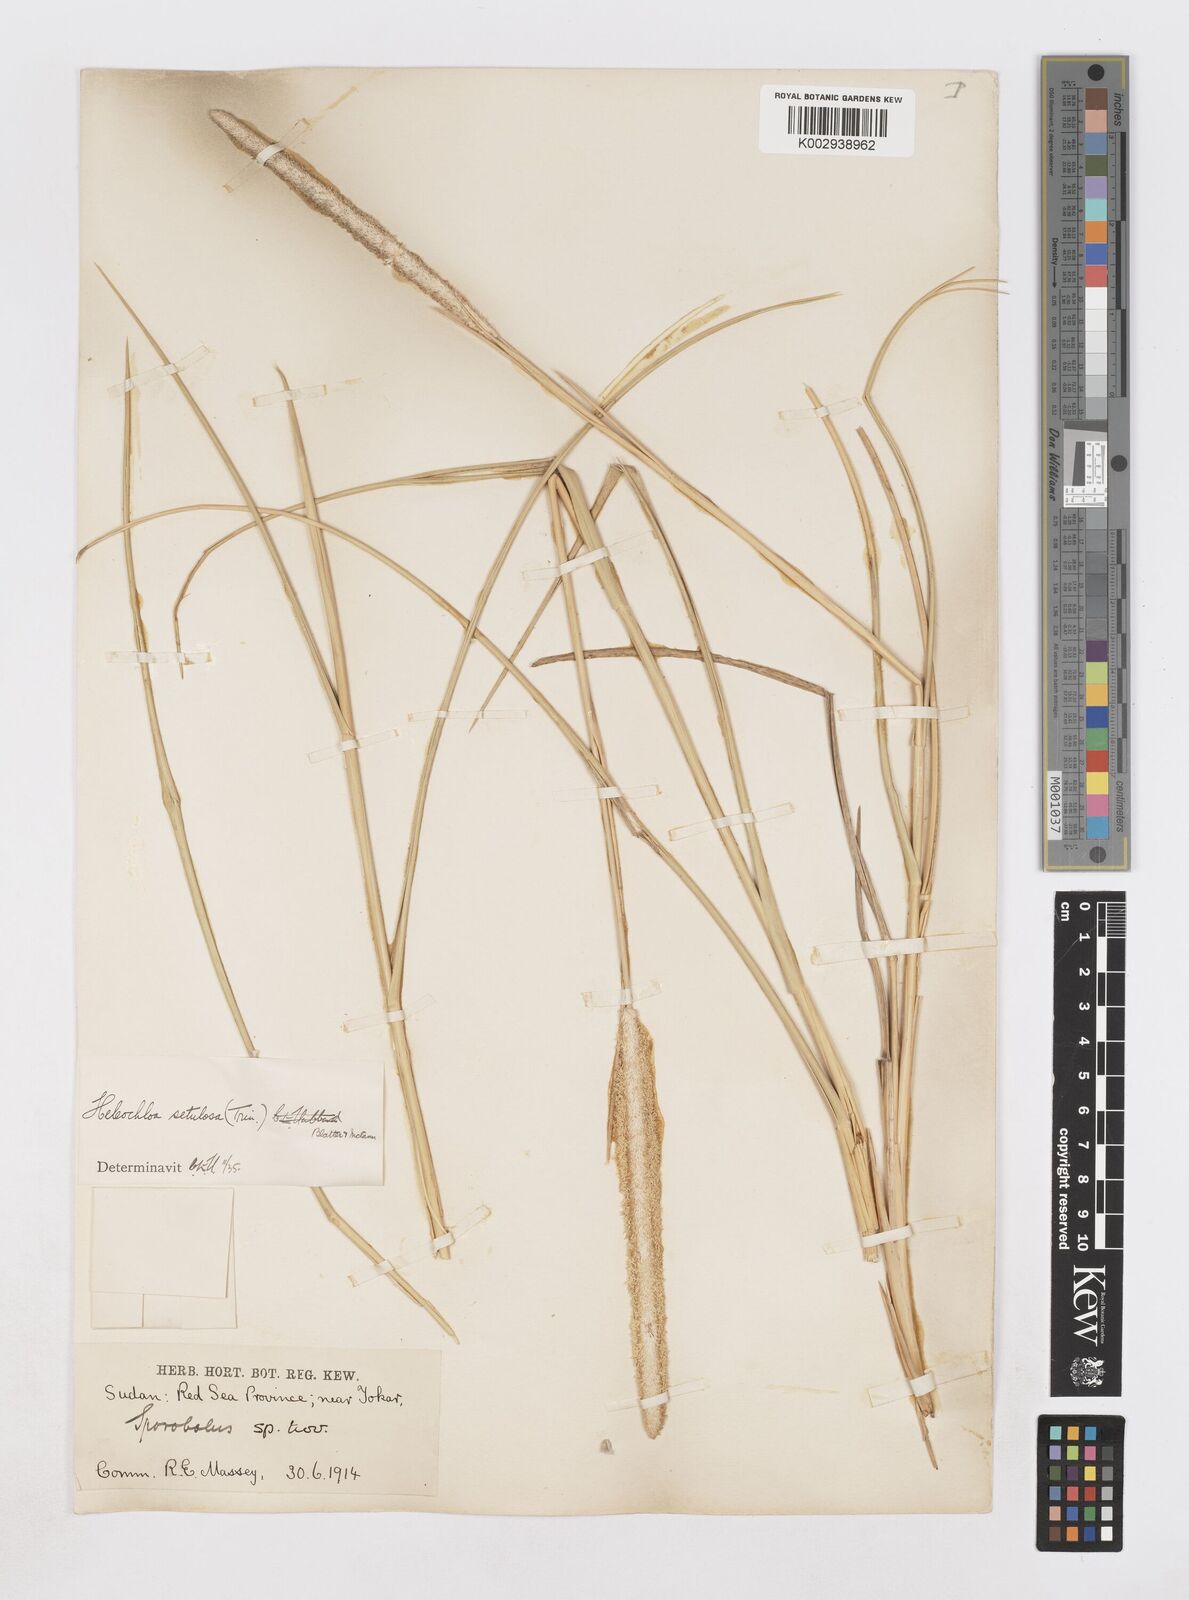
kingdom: Plantae
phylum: Tracheophyta
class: Liliopsida
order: Poales
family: Poaceae
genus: Urochondra
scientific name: Urochondra setulosa
